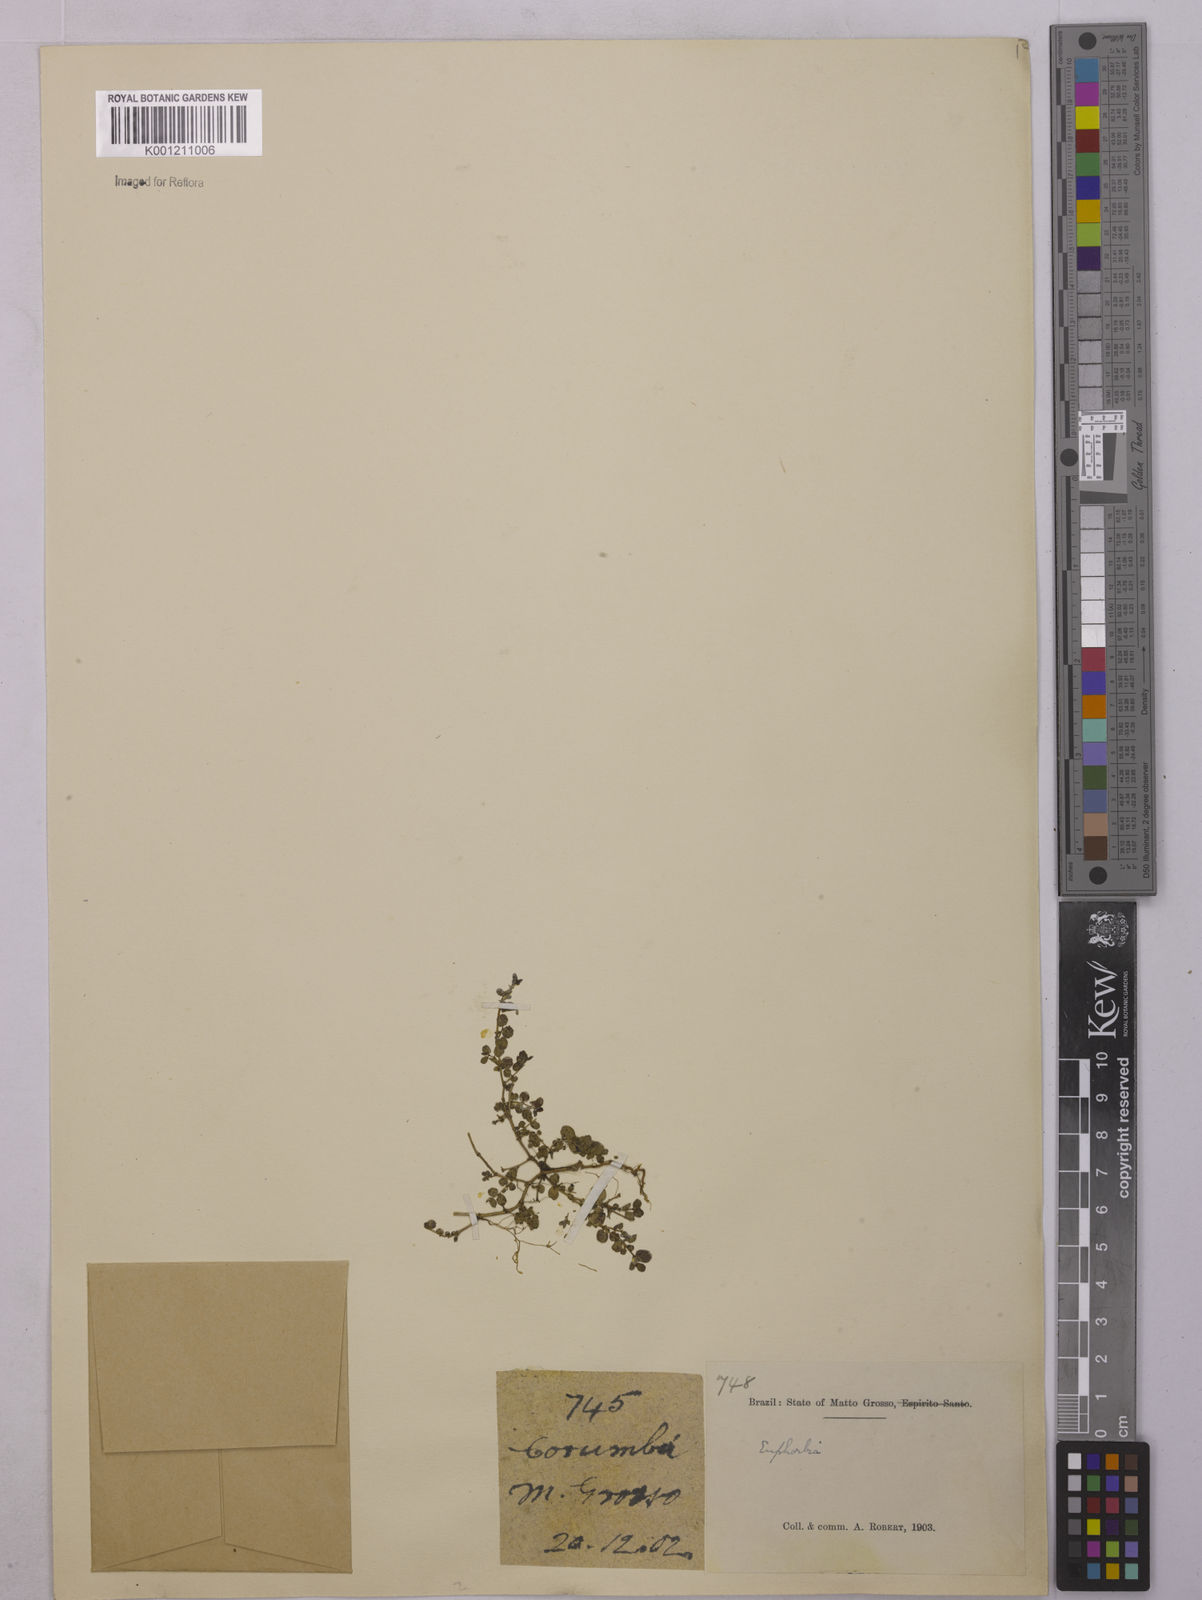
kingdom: Plantae
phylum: Tracheophyta
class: Magnoliopsida
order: Malpighiales
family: Euphorbiaceae
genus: Euphorbia
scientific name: Euphorbia
